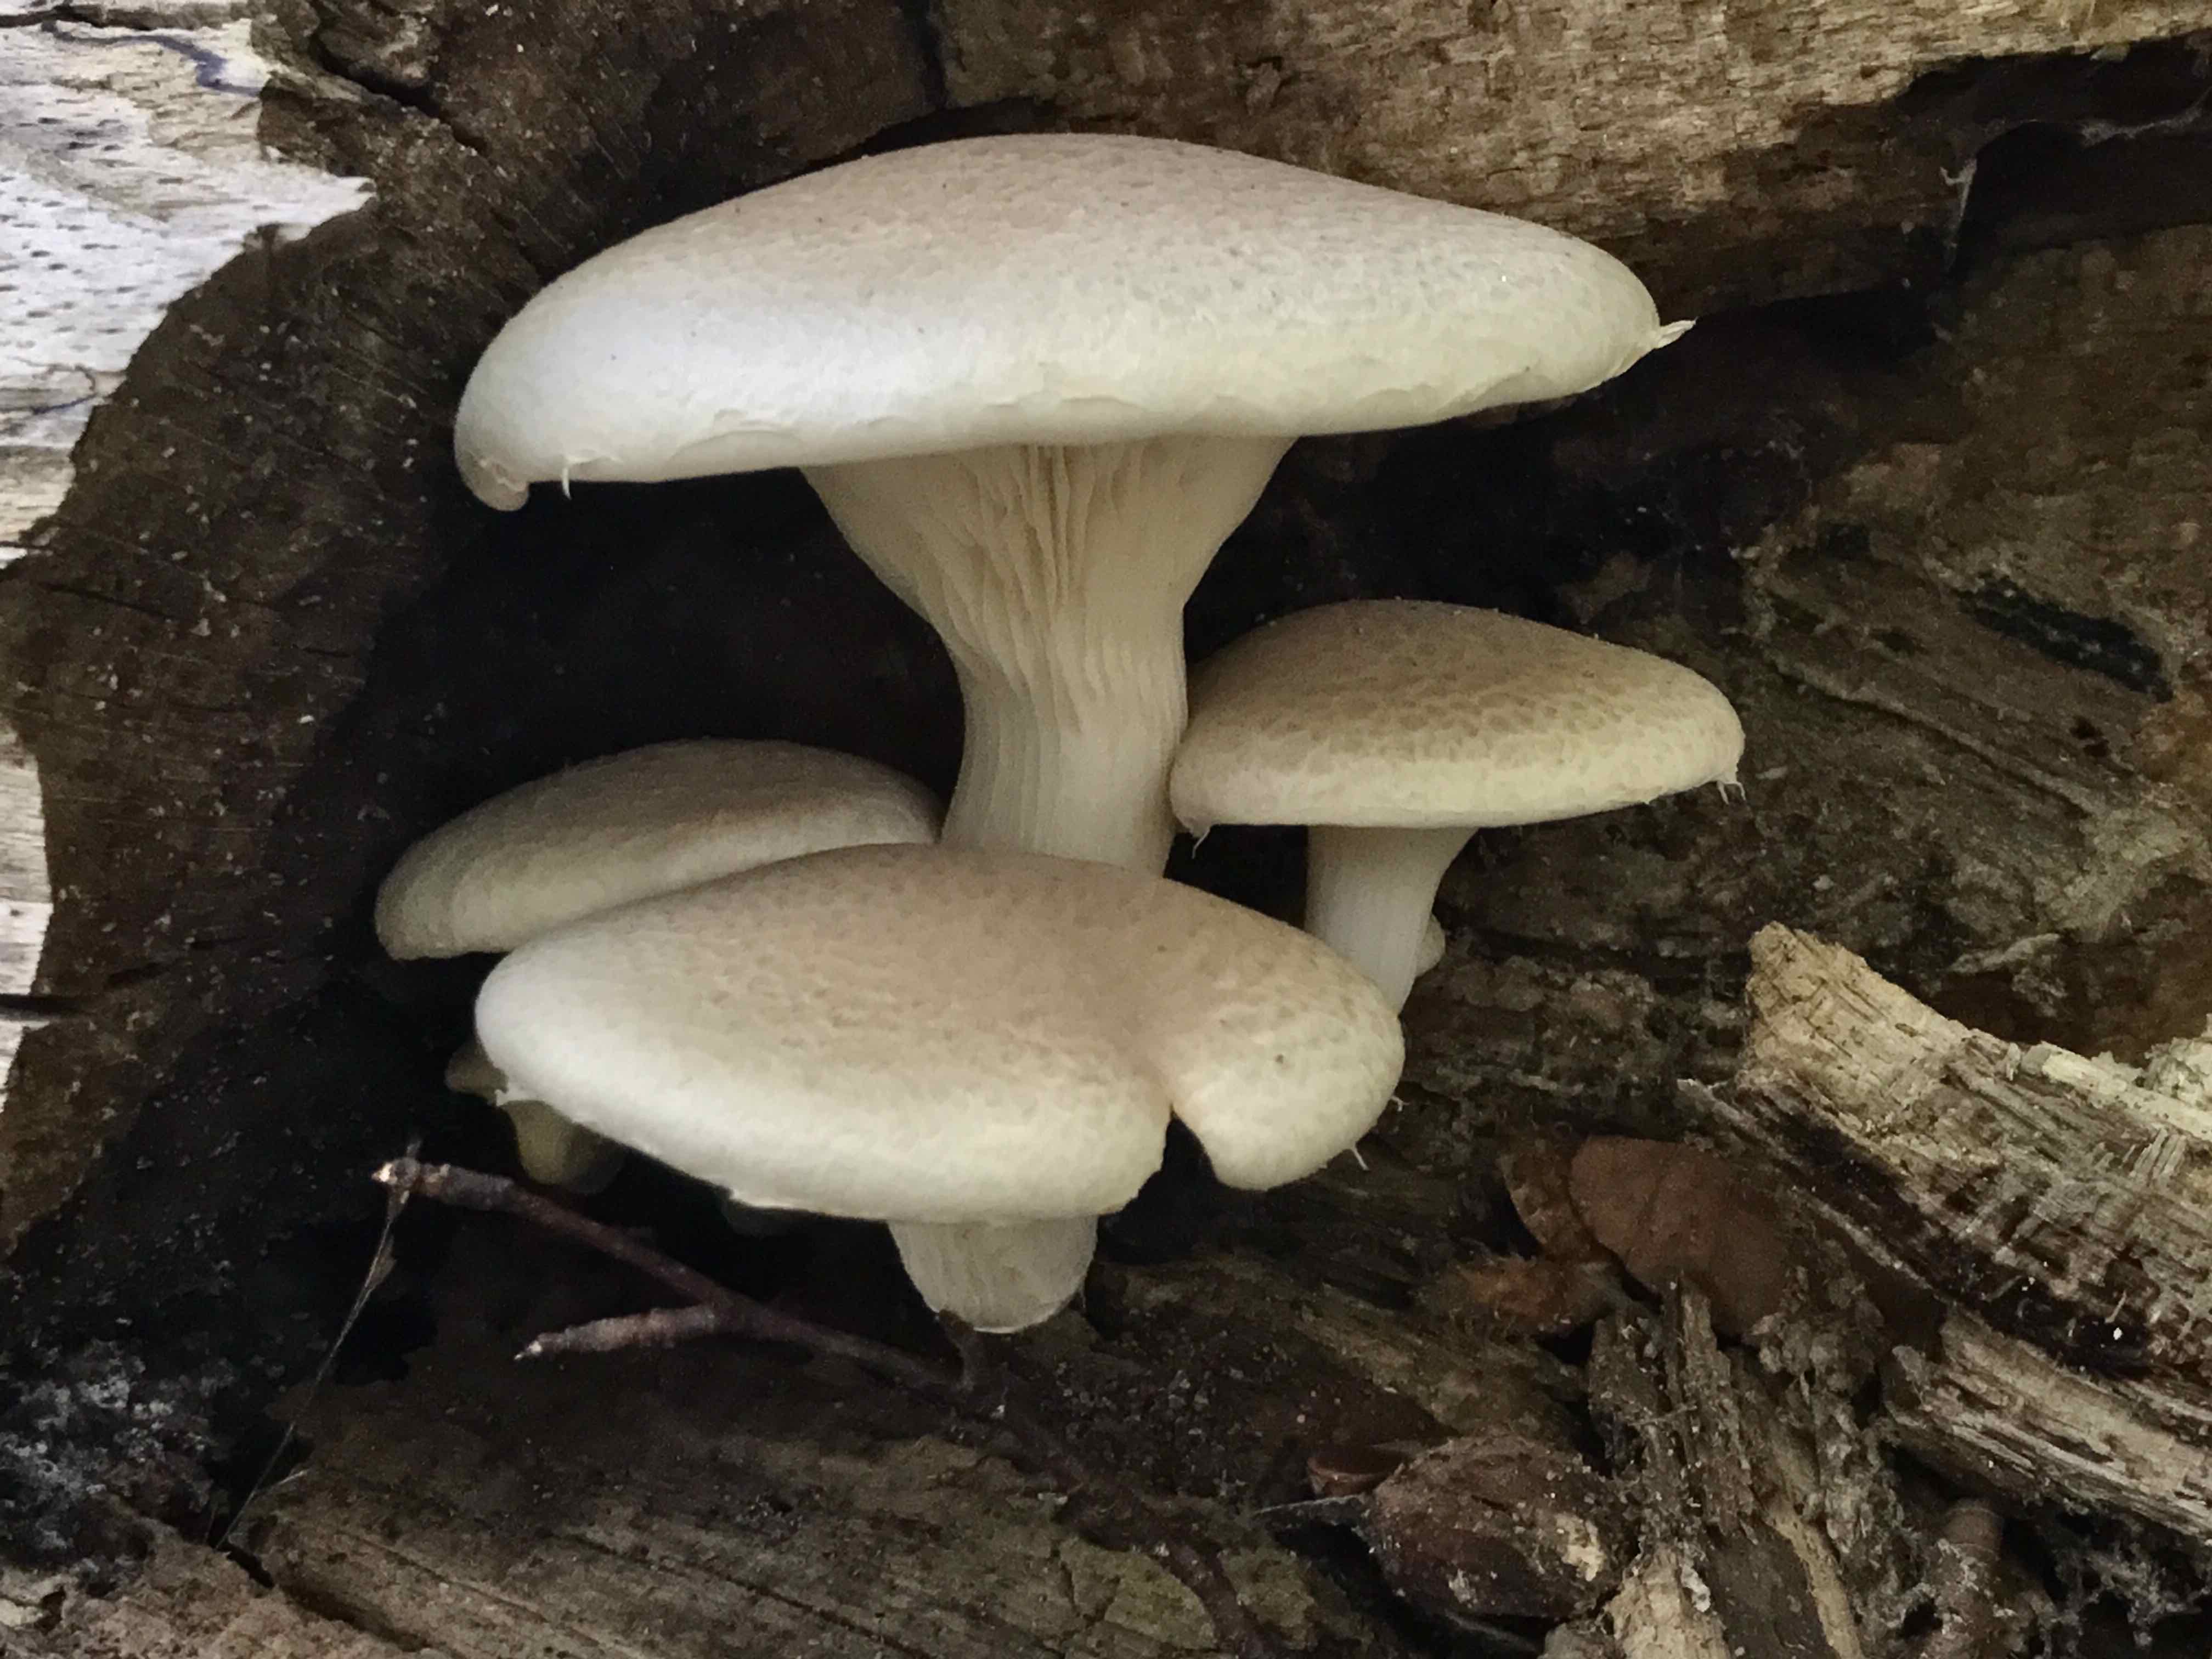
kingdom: Fungi
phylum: Basidiomycota
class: Agaricomycetes
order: Agaricales
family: Pleurotaceae
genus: Pleurotus
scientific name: Pleurotus dryinus
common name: korkagtig østershat
